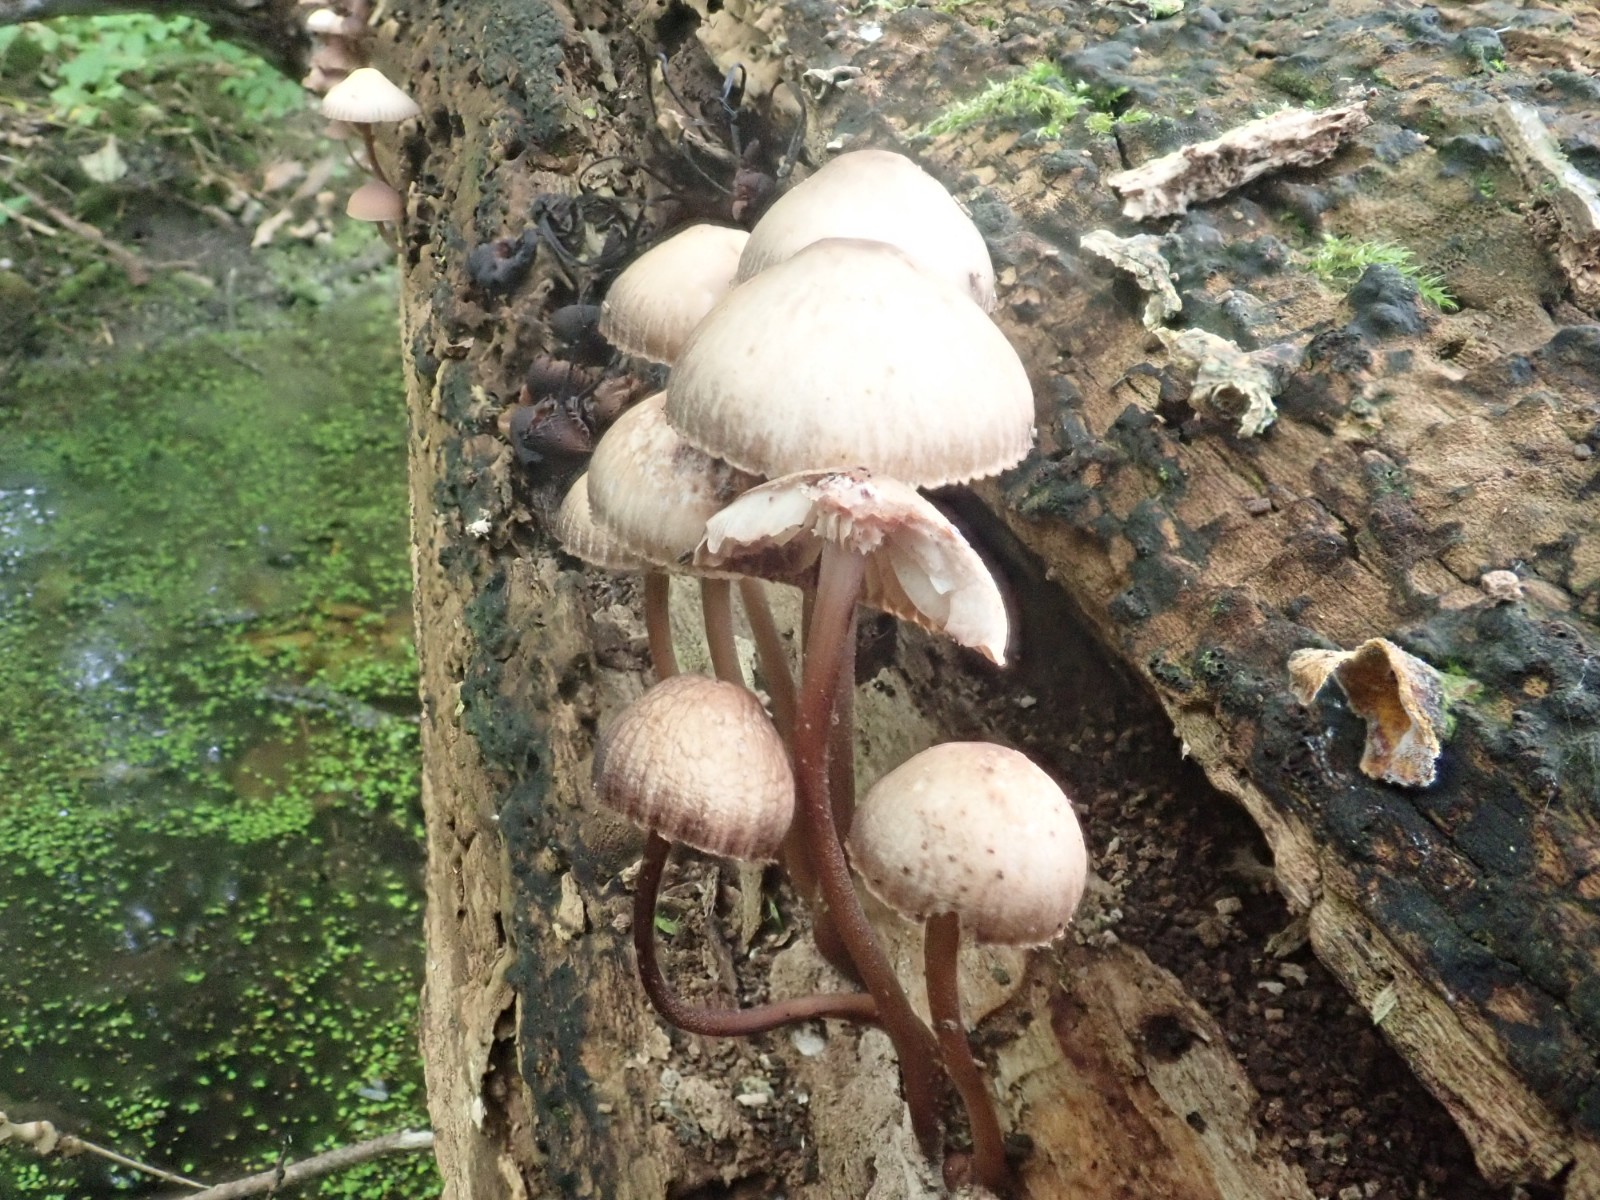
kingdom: Fungi
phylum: Basidiomycota
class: Agaricomycetes
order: Agaricales
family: Mycenaceae
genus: Mycena
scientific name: Mycena haematopus
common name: blødende huesvamp
